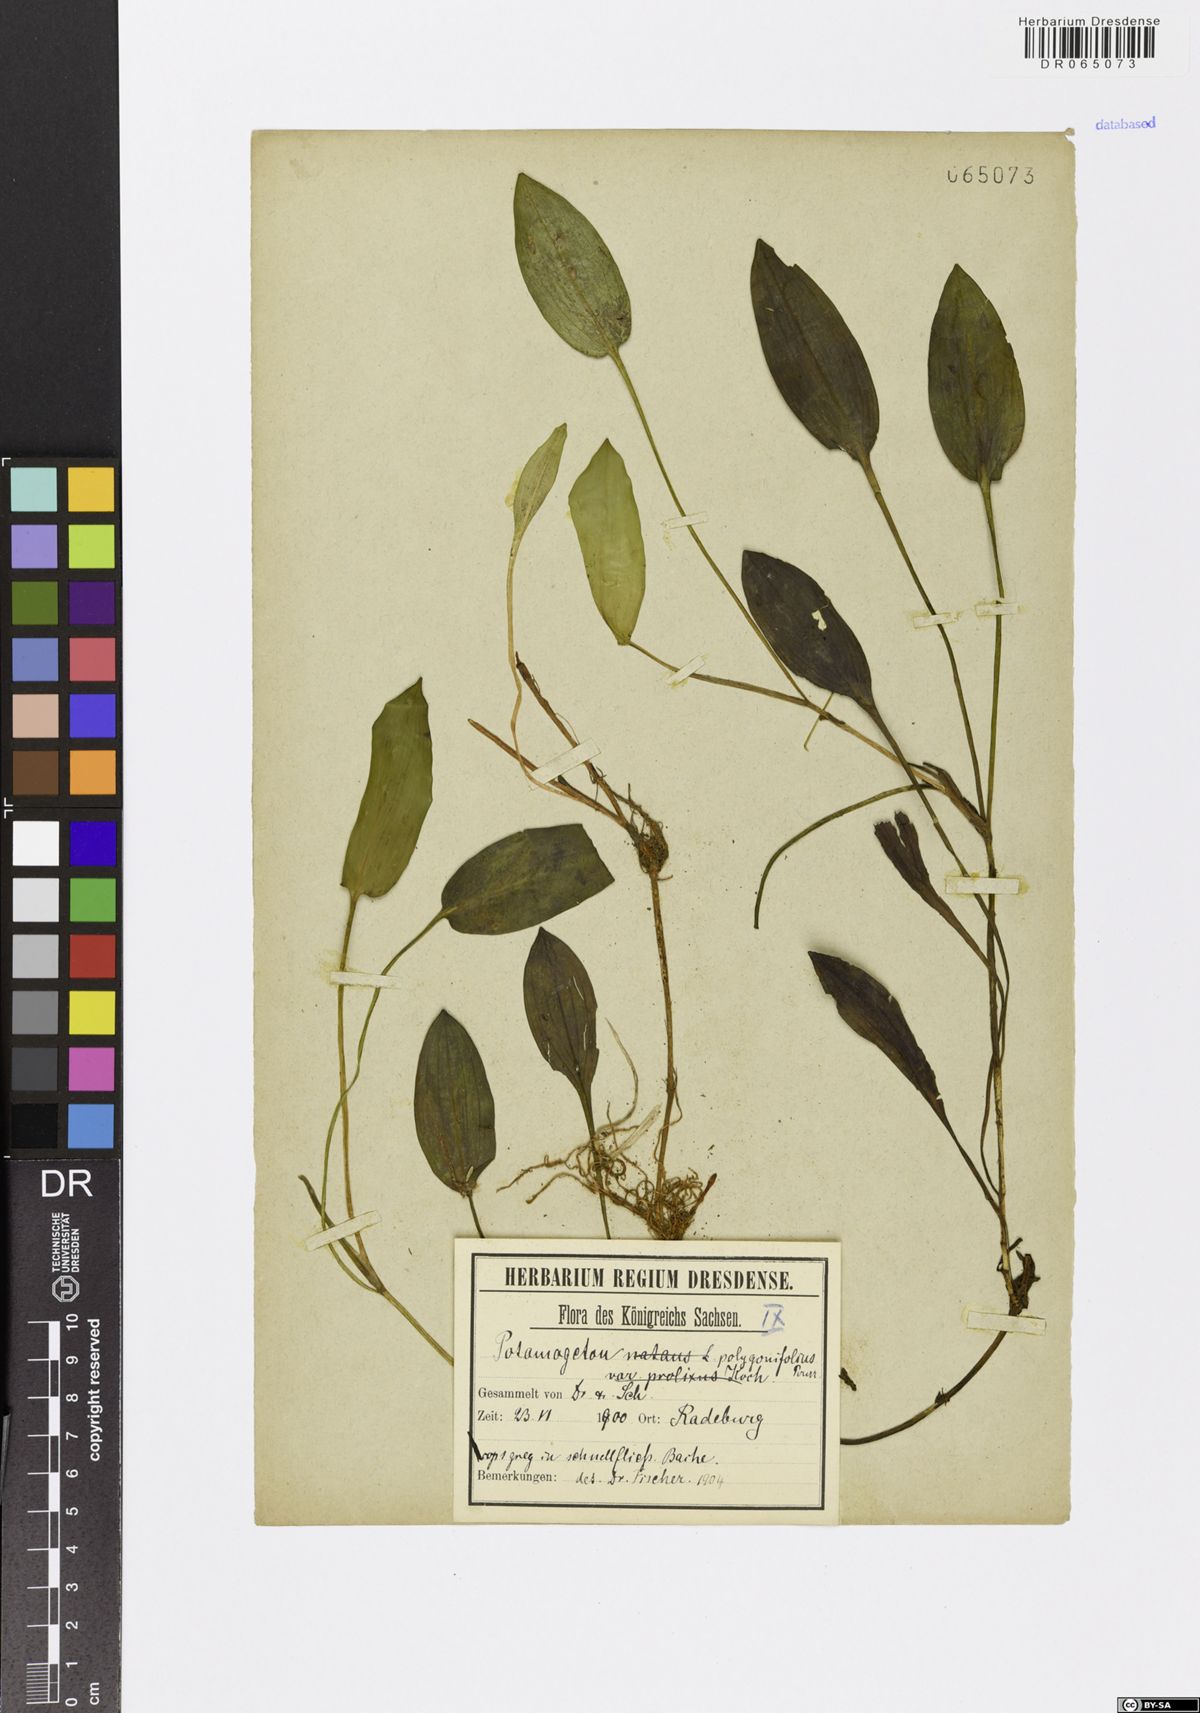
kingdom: Plantae
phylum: Tracheophyta
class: Liliopsida
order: Alismatales
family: Potamogetonaceae
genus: Potamogeton
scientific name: Potamogeton polygonifolius
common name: Bog pondweed
